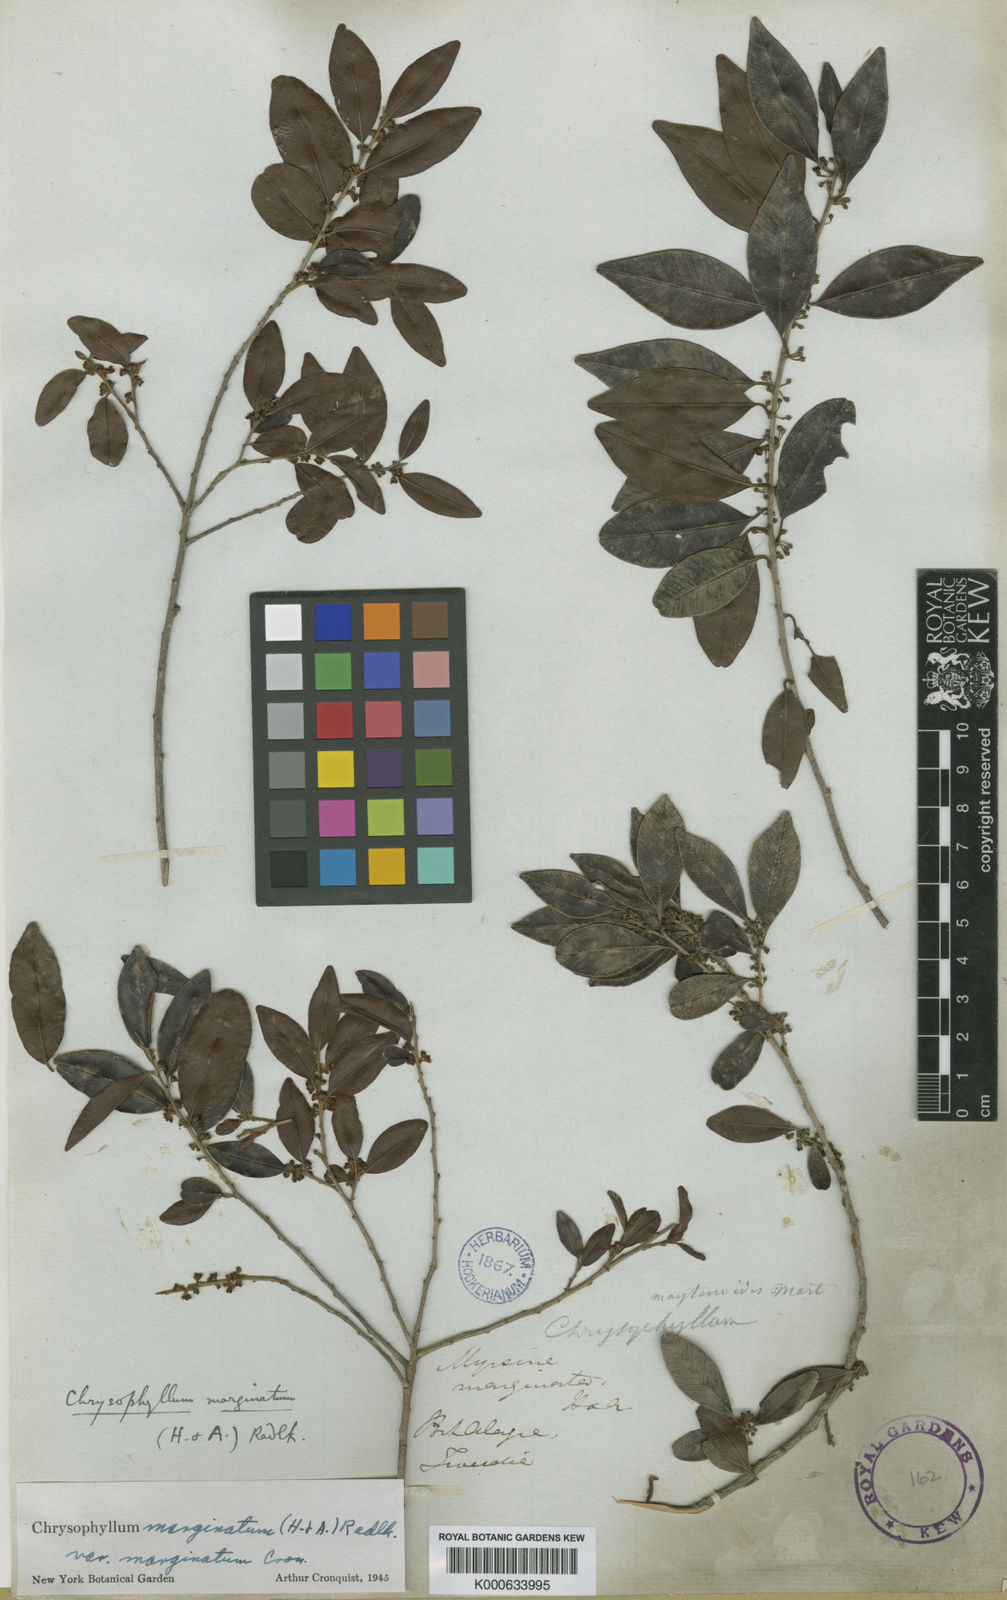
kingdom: Plantae
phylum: Tracheophyta
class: Magnoliopsida
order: Ericales
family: Sapotaceae
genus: Chrysophyllum
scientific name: Chrysophyllum marginatum
